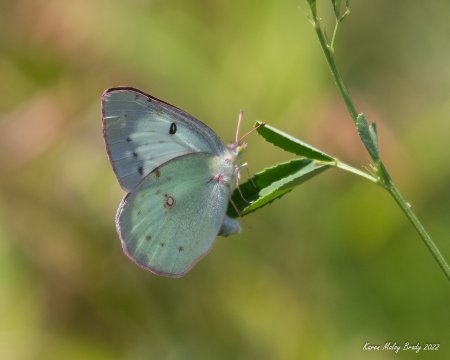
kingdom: Animalia
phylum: Arthropoda
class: Insecta
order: Lepidoptera
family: Pieridae
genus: Colias
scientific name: Colias philodice
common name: Clouded Sulphur
